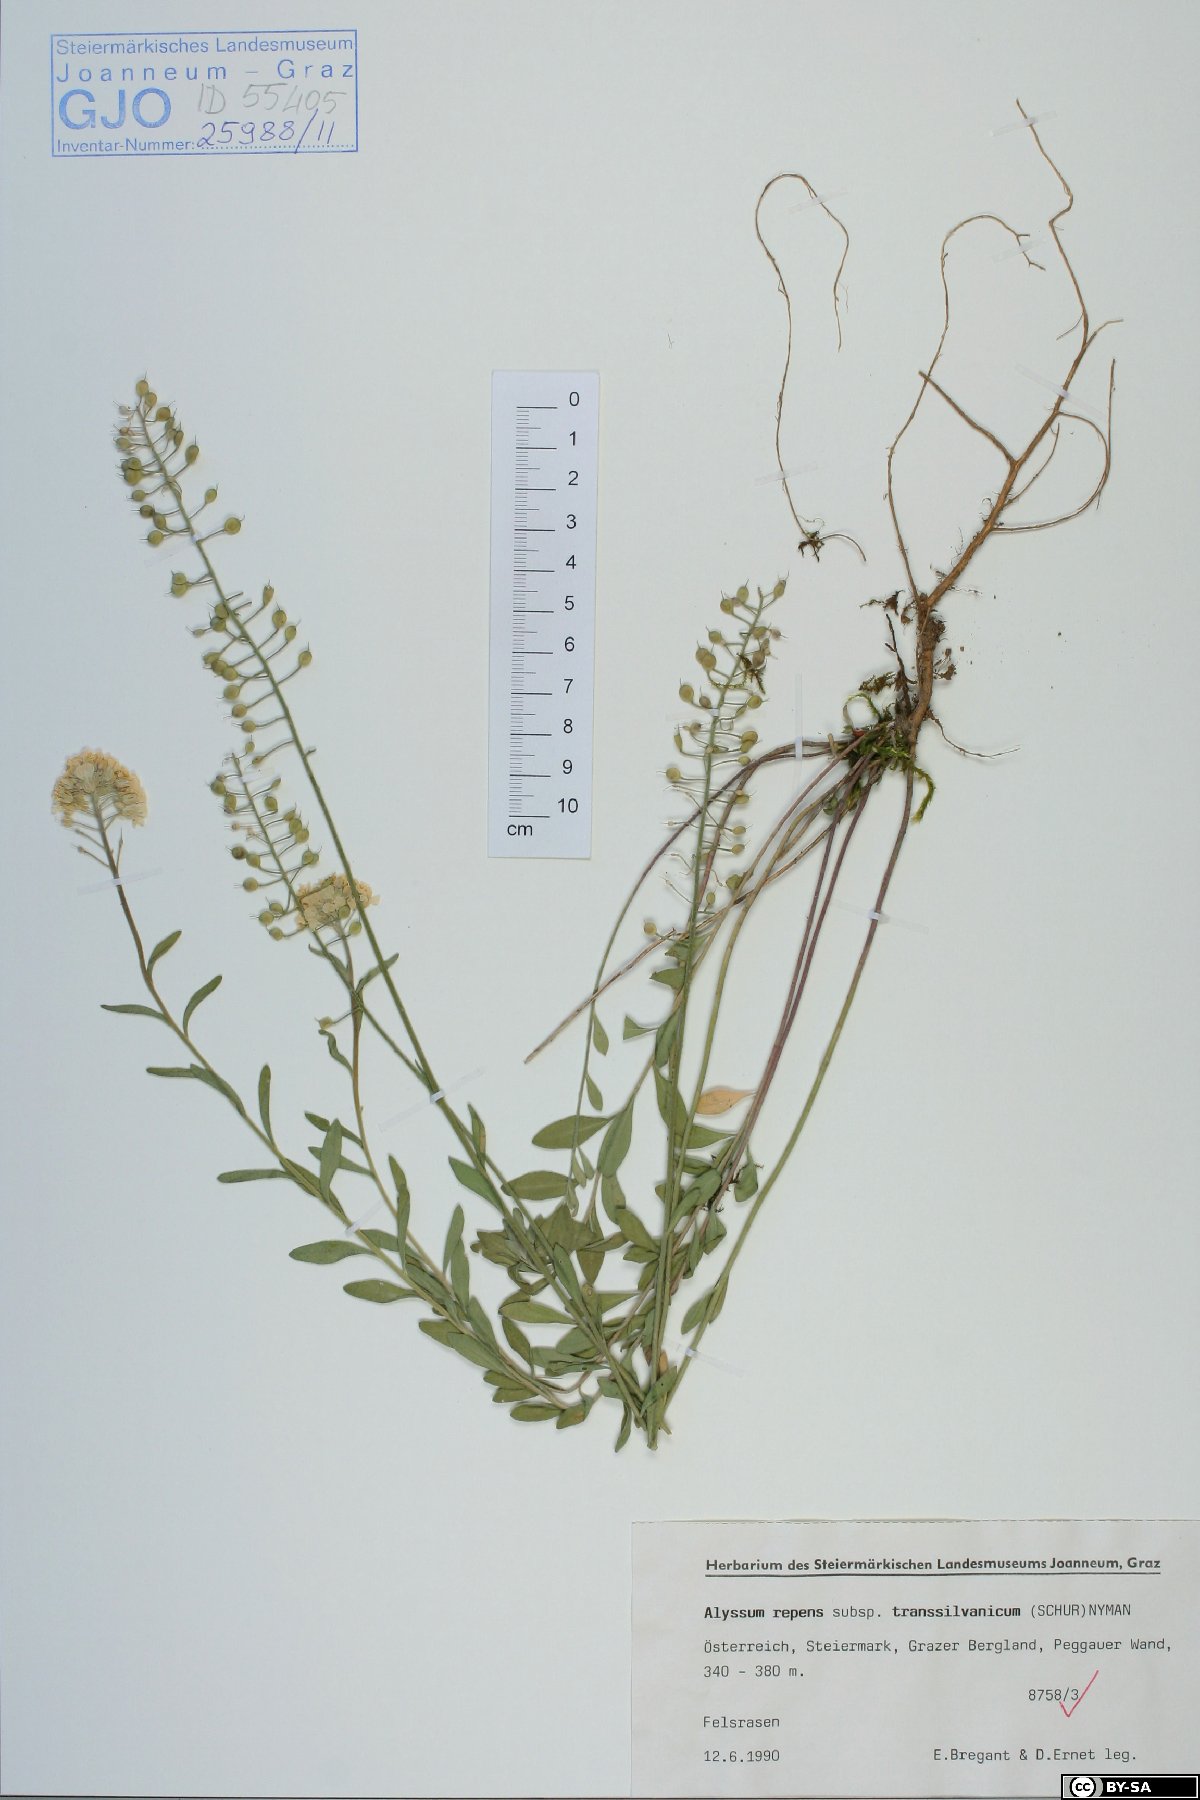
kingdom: Plantae
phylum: Tracheophyta
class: Magnoliopsida
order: Brassicales
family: Brassicaceae
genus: Alyssum
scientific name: Alyssum repens
